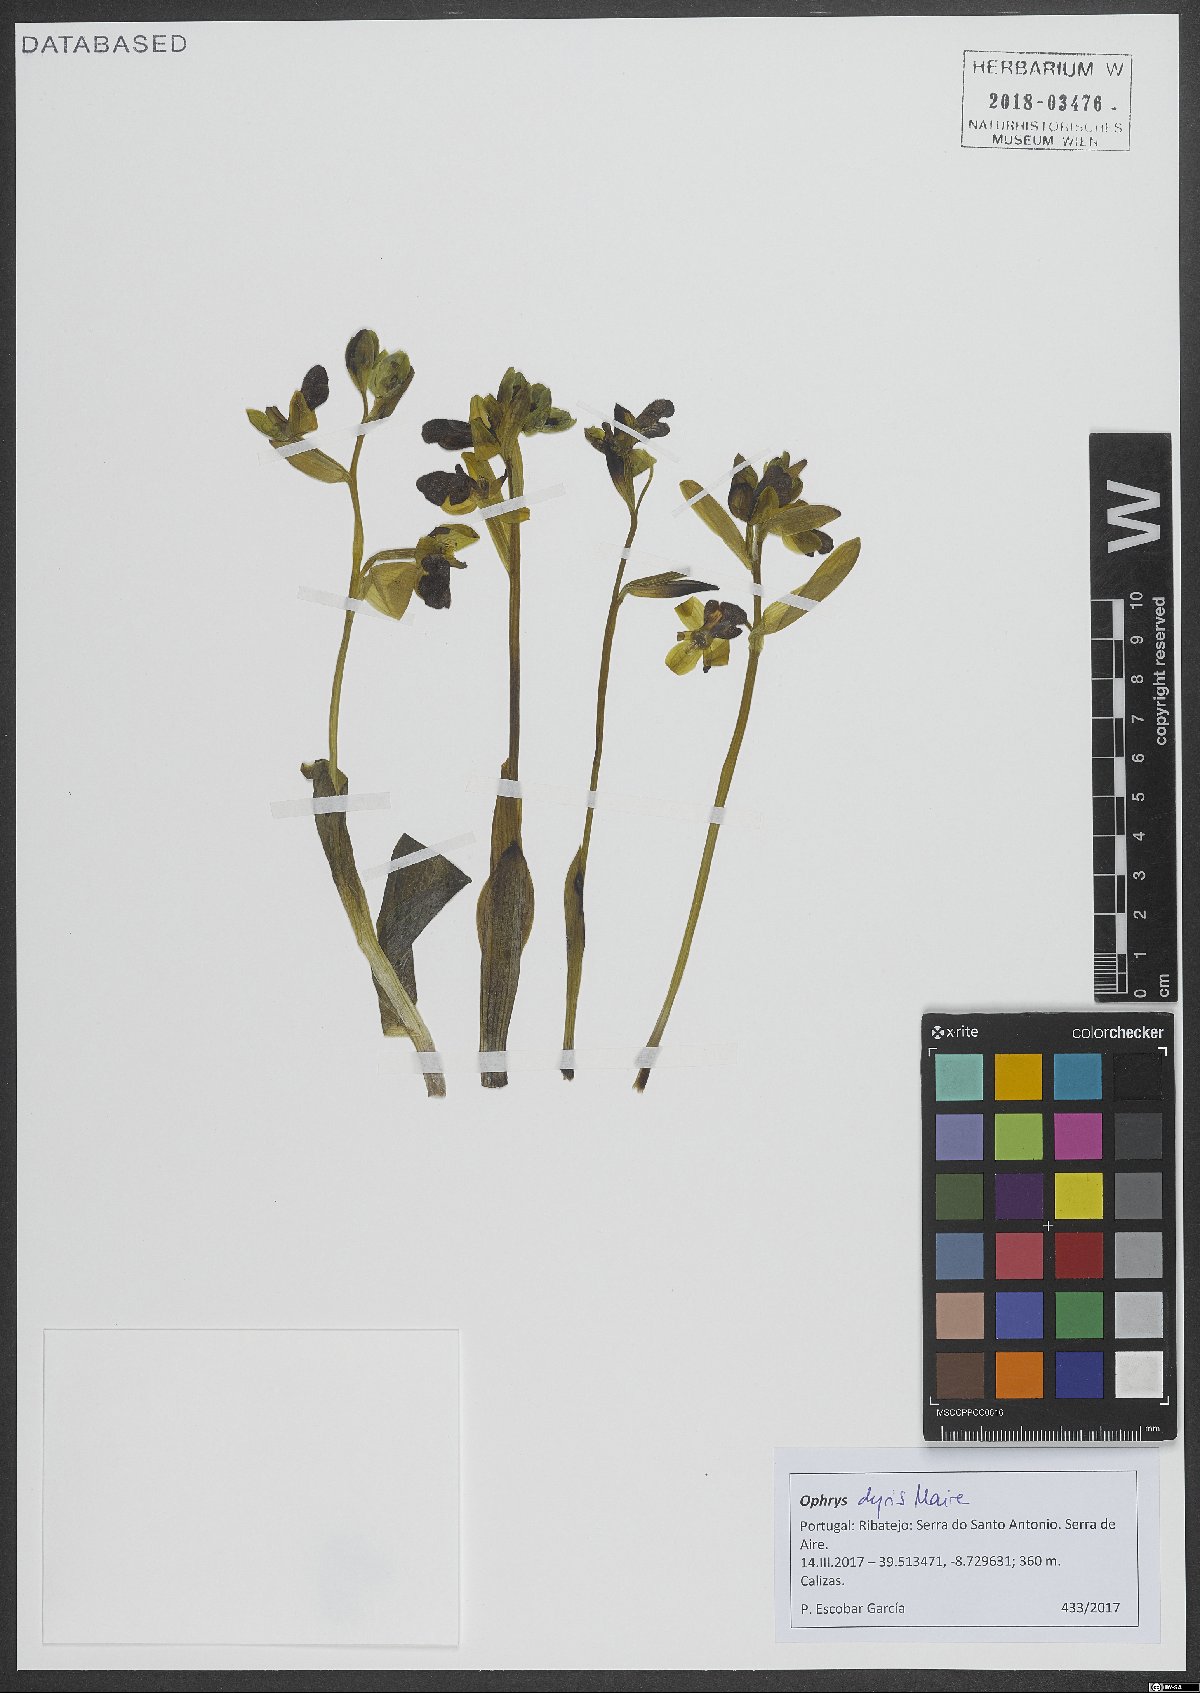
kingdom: Plantae
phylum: Tracheophyta
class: Liliopsida
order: Asparagales
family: Orchidaceae
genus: Ophrys
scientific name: Ophrys omegaifera
